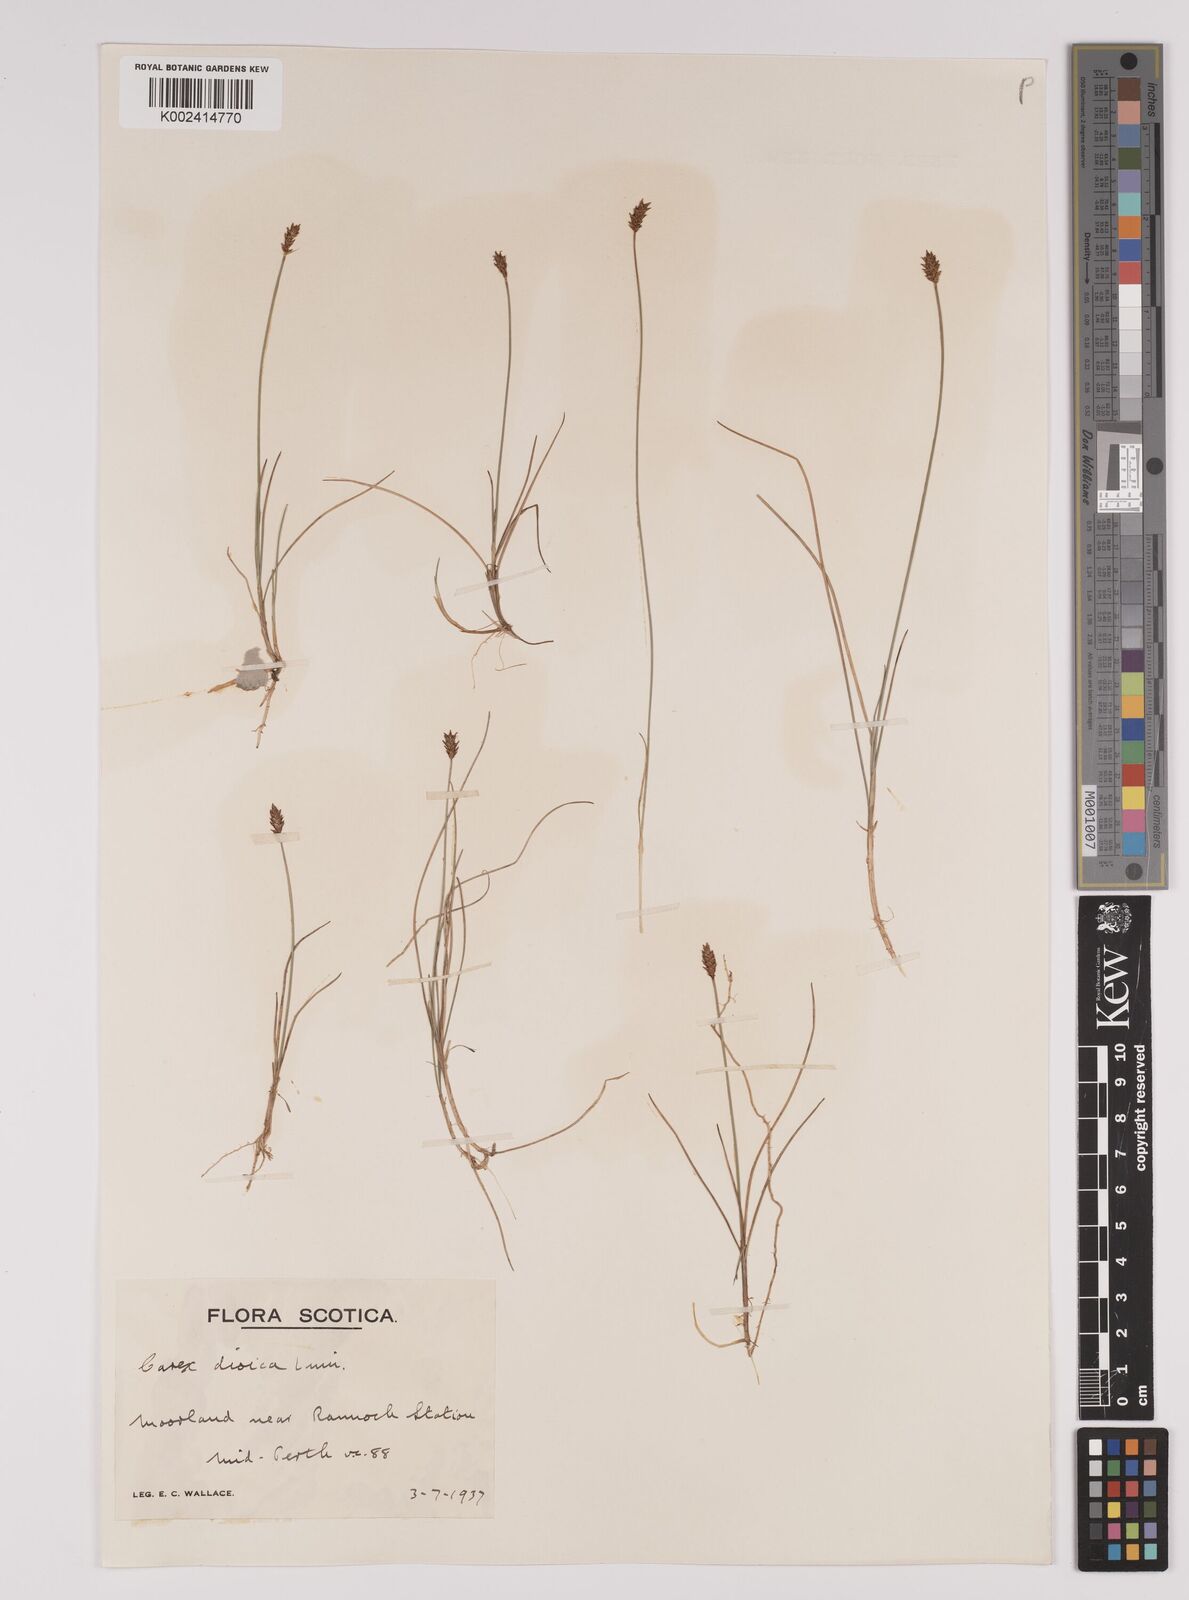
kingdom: Plantae
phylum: Tracheophyta
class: Liliopsida
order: Poales
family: Cyperaceae
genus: Carex
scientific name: Carex dioica
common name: Dioecious sedge
